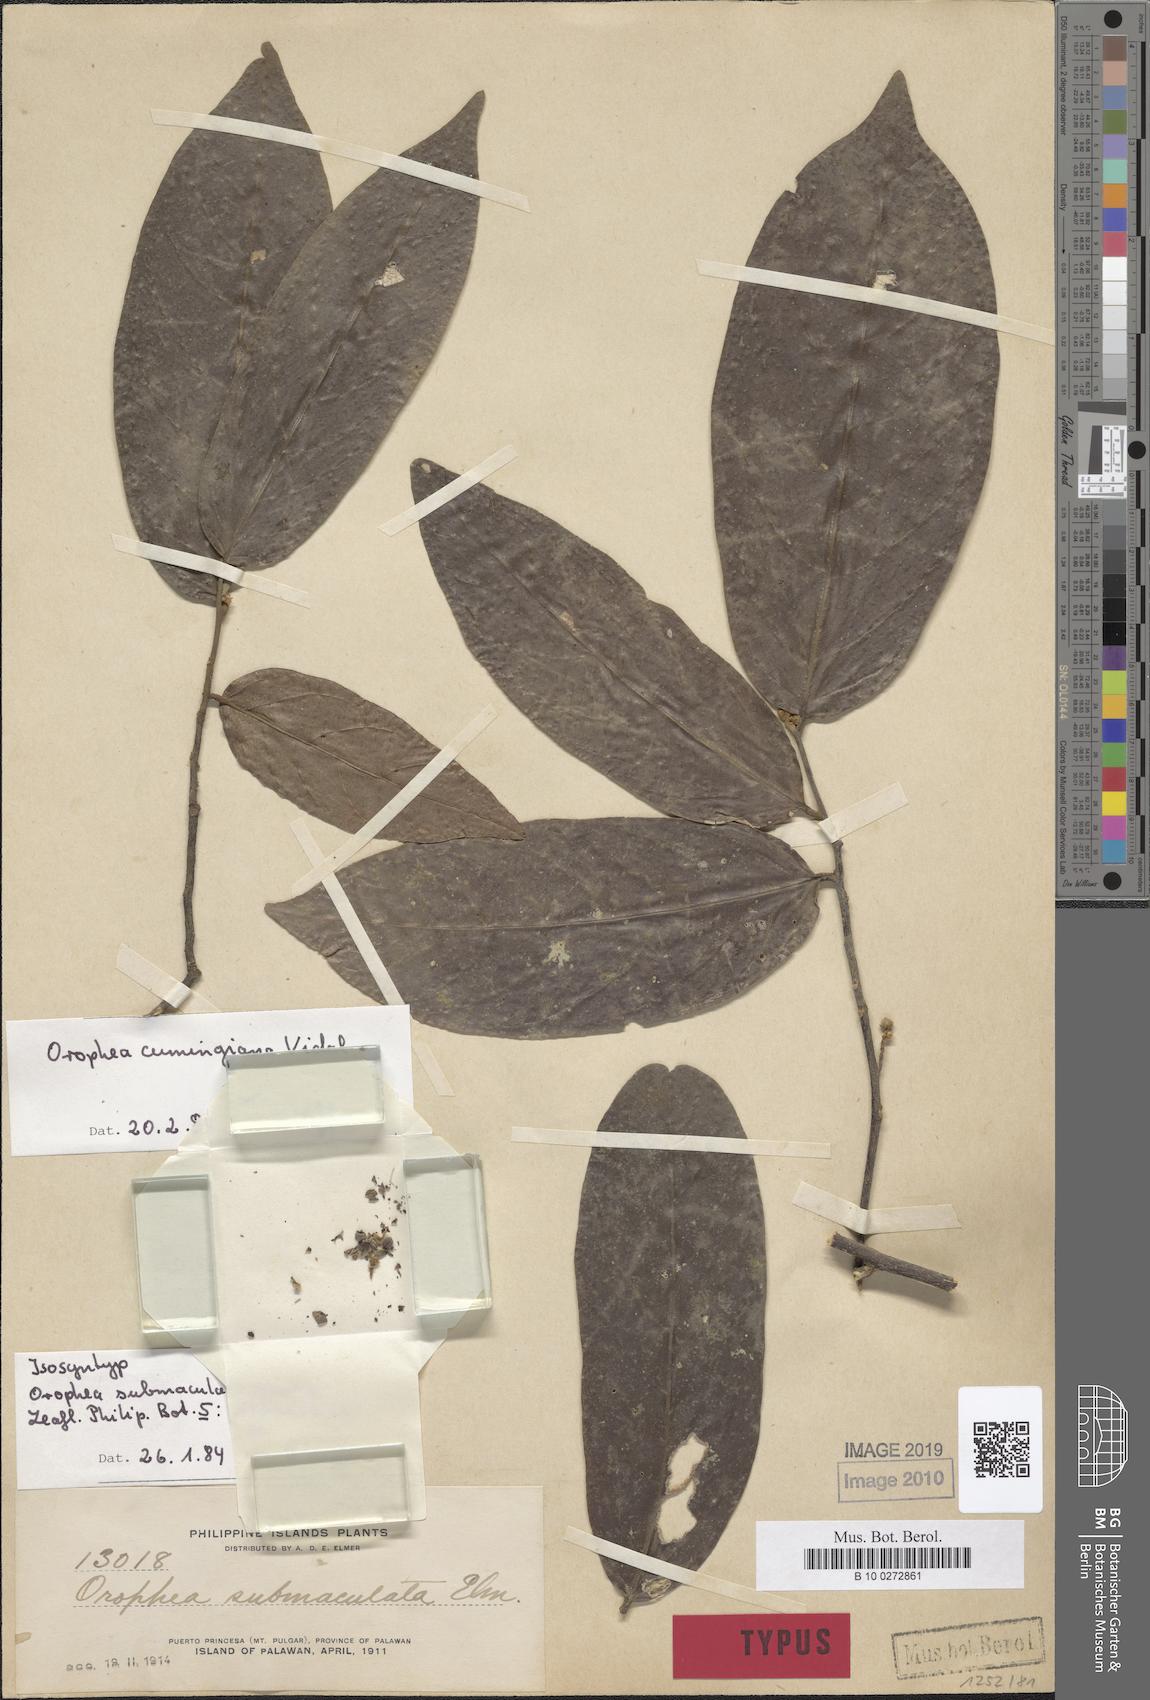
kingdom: Plantae
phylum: Tracheophyta
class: Magnoliopsida
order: Magnoliales
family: Annonaceae
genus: Orophea
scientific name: Orophea cumingiana
